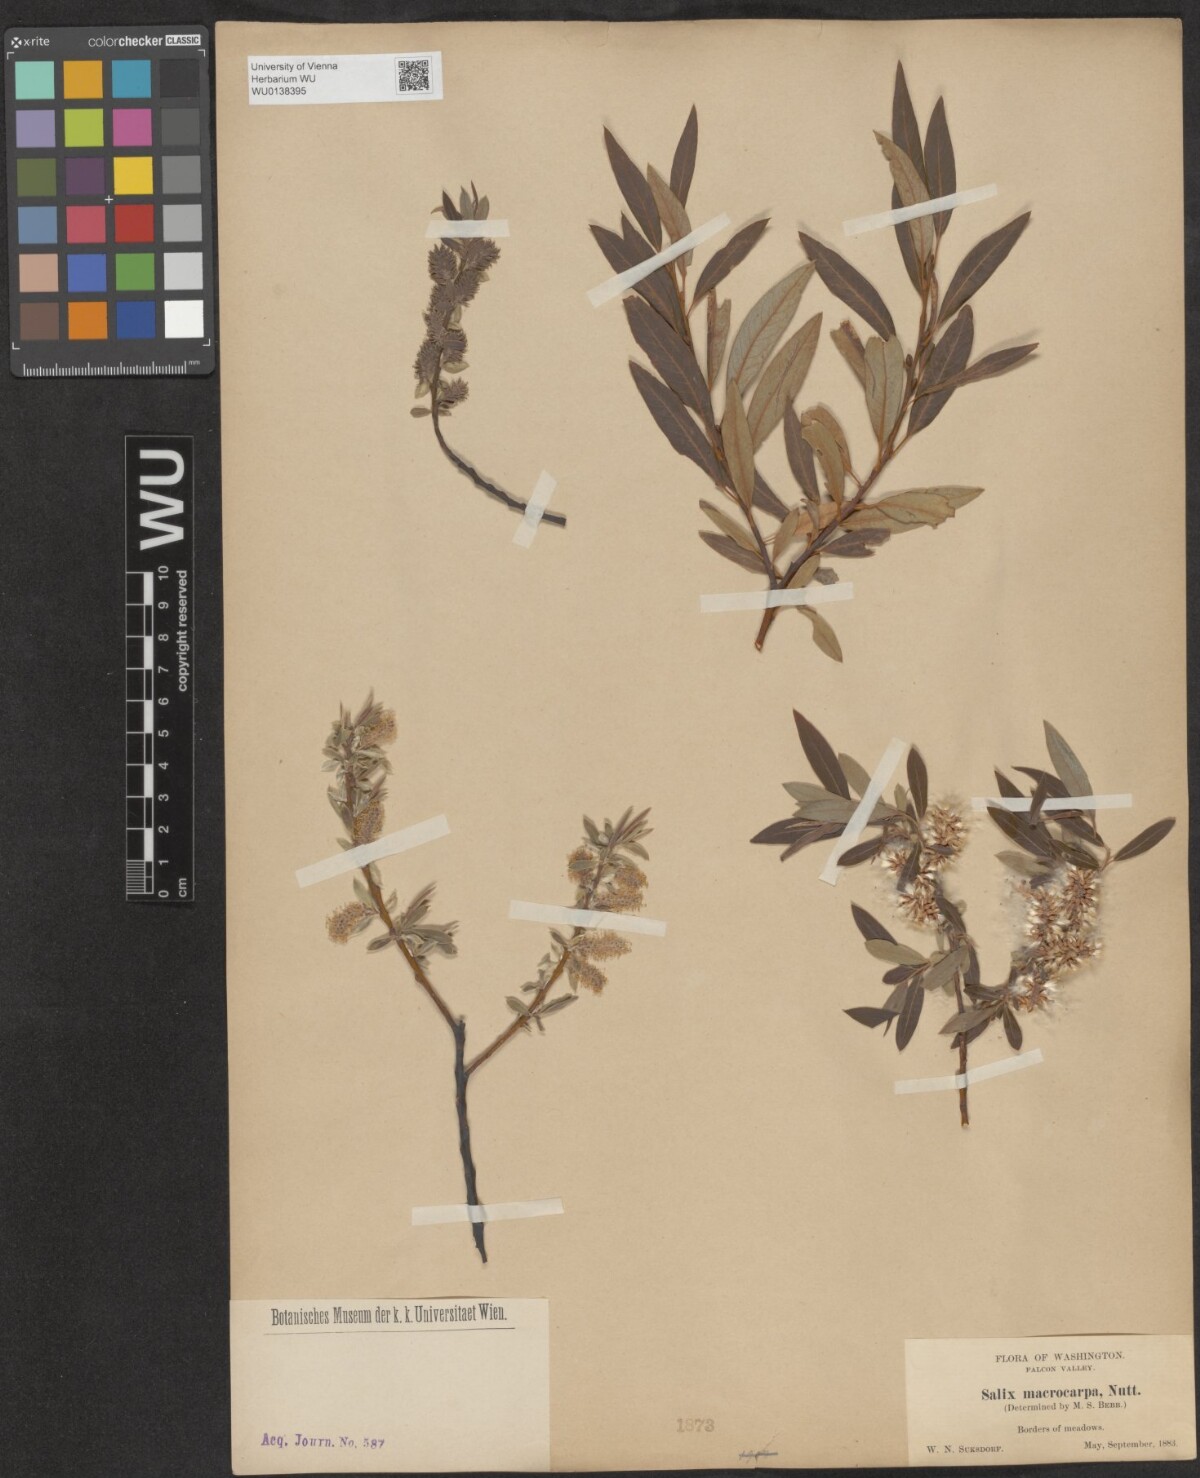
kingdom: Plantae
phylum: Tracheophyta
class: Magnoliopsida
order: Malpighiales
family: Salicaceae
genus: Salix
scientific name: Salix glauca
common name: Glaucous willow
